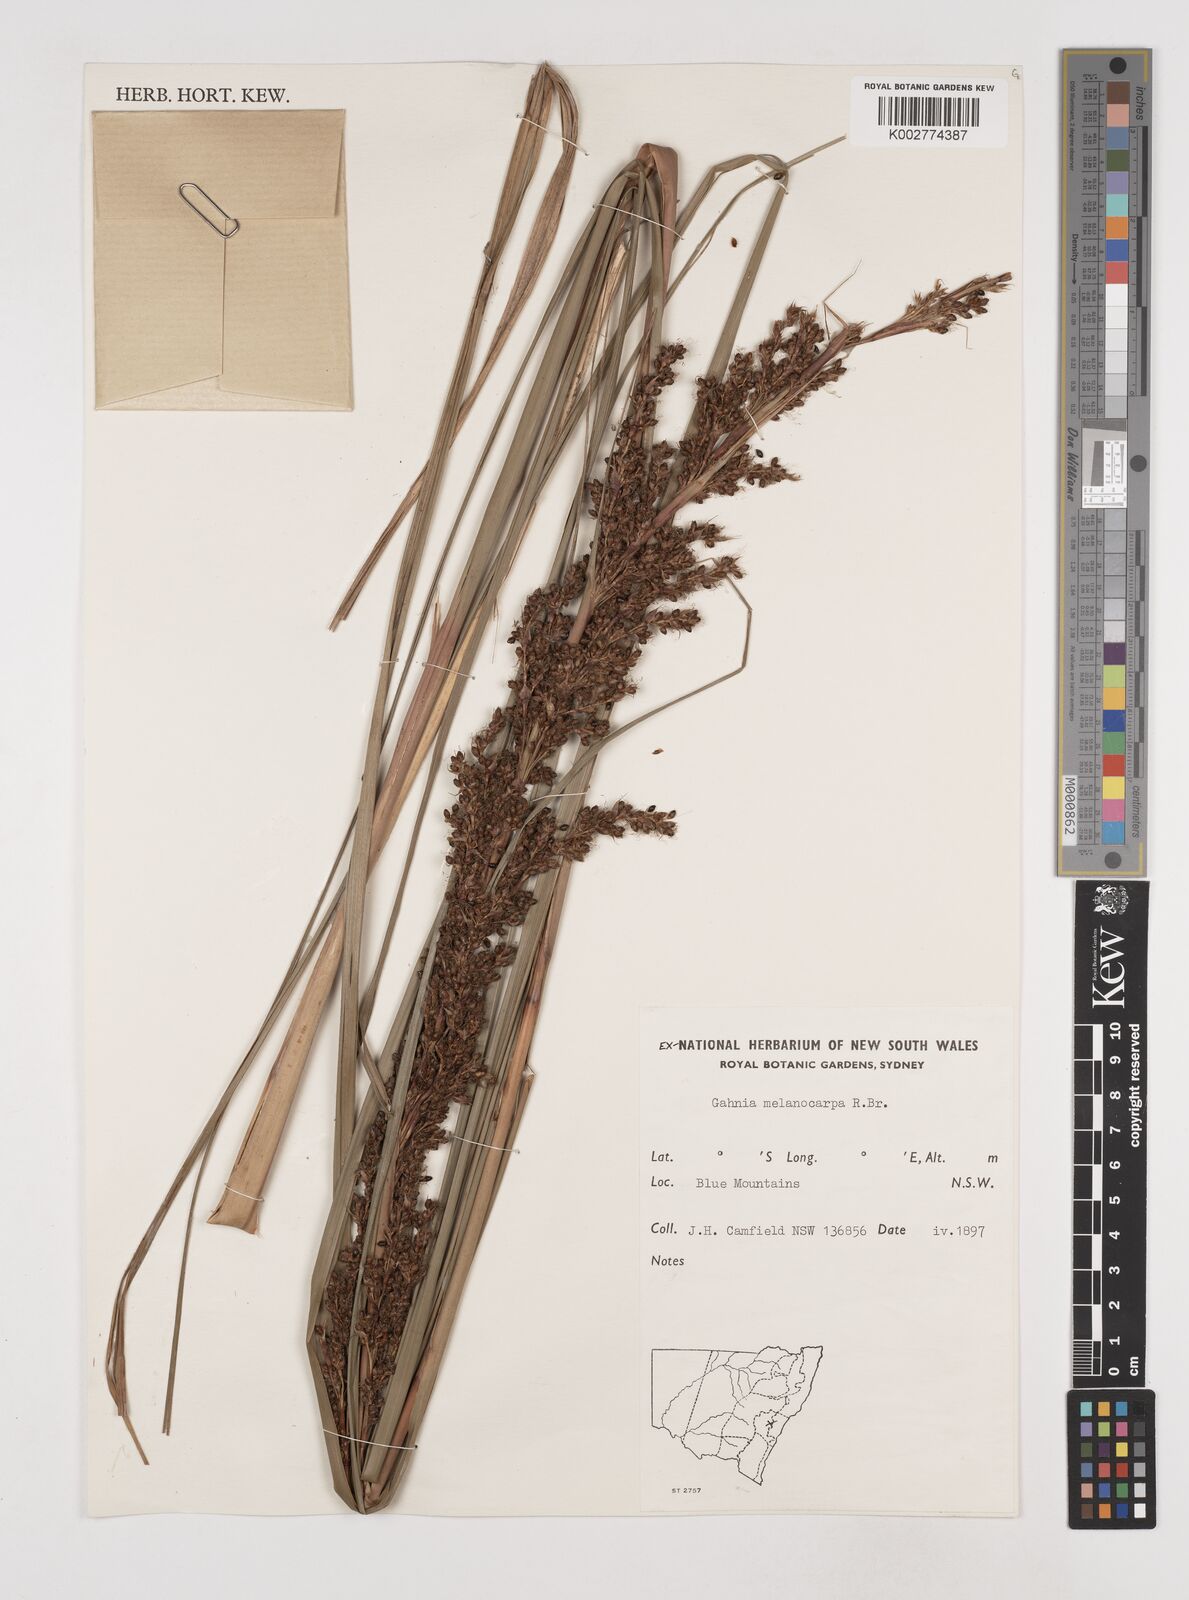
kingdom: Plantae
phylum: Tracheophyta
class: Liliopsida
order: Poales
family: Cyperaceae
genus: Gahnia
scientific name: Gahnia melanocarpa
